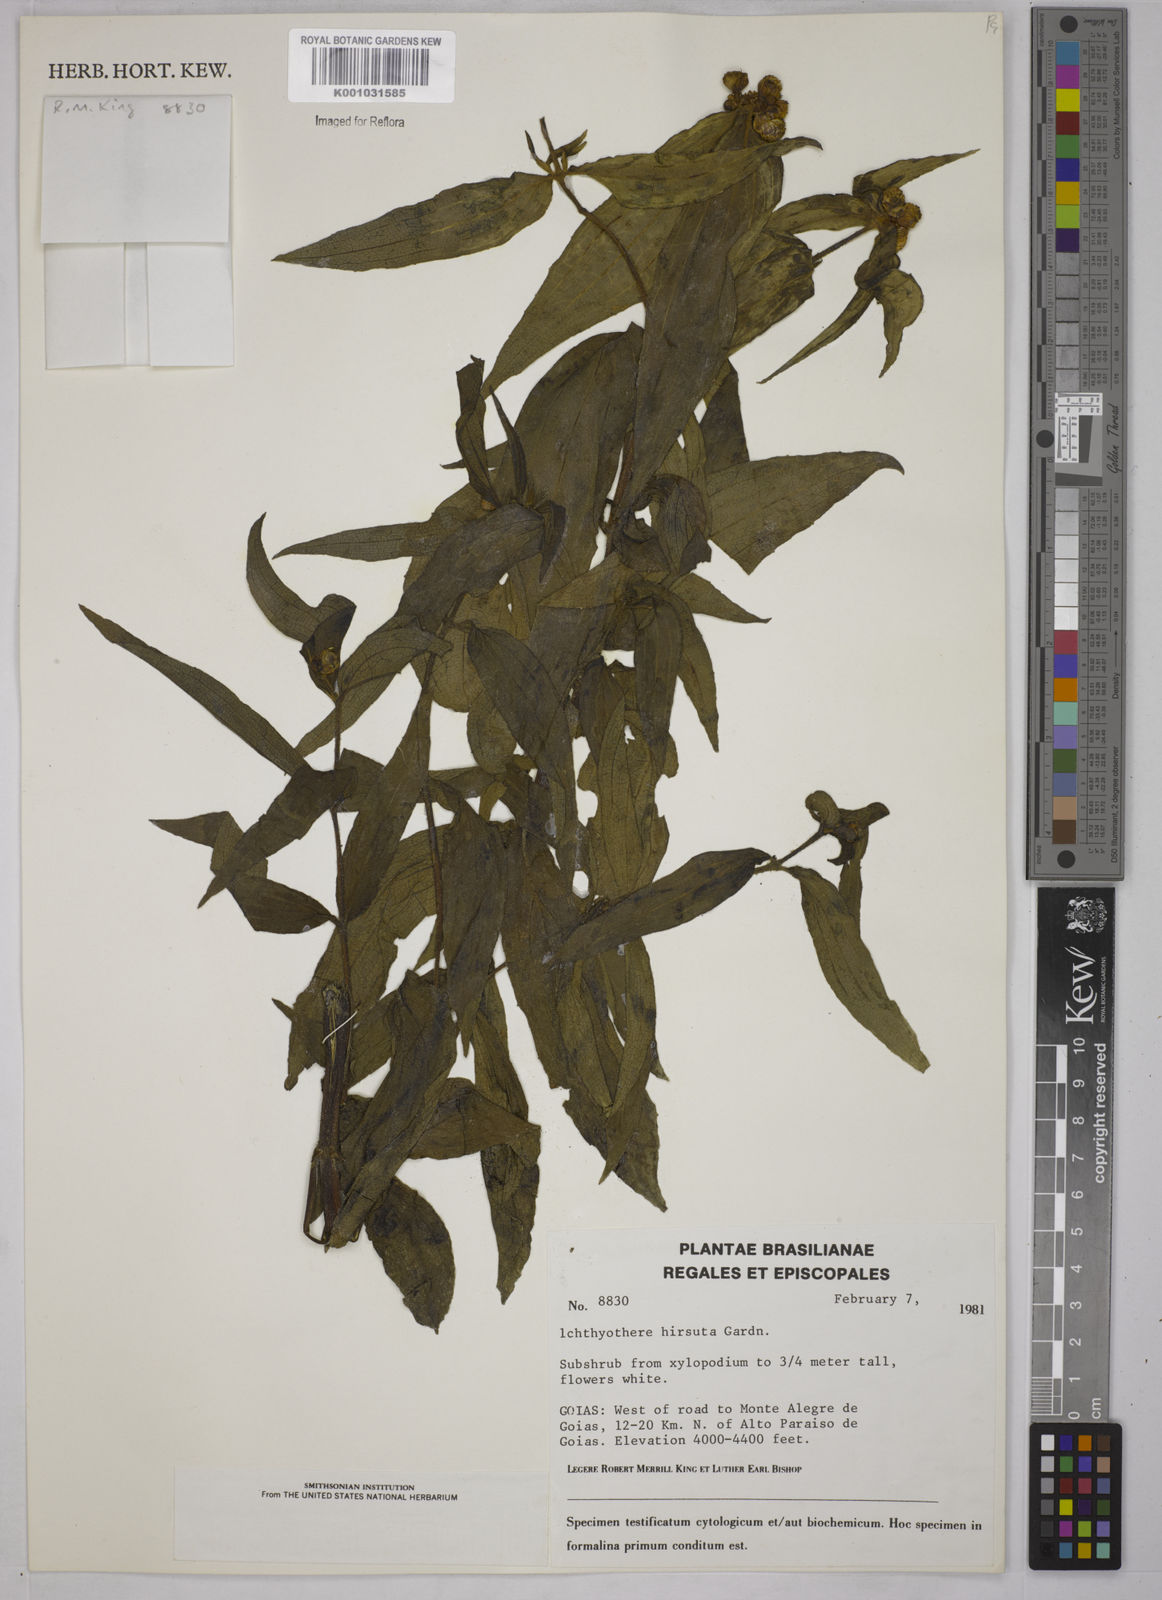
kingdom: Plantae
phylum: Tracheophyta
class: Magnoliopsida
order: Asterales
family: Asteraceae
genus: Ichthyothere
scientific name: Ichthyothere hirsuta
